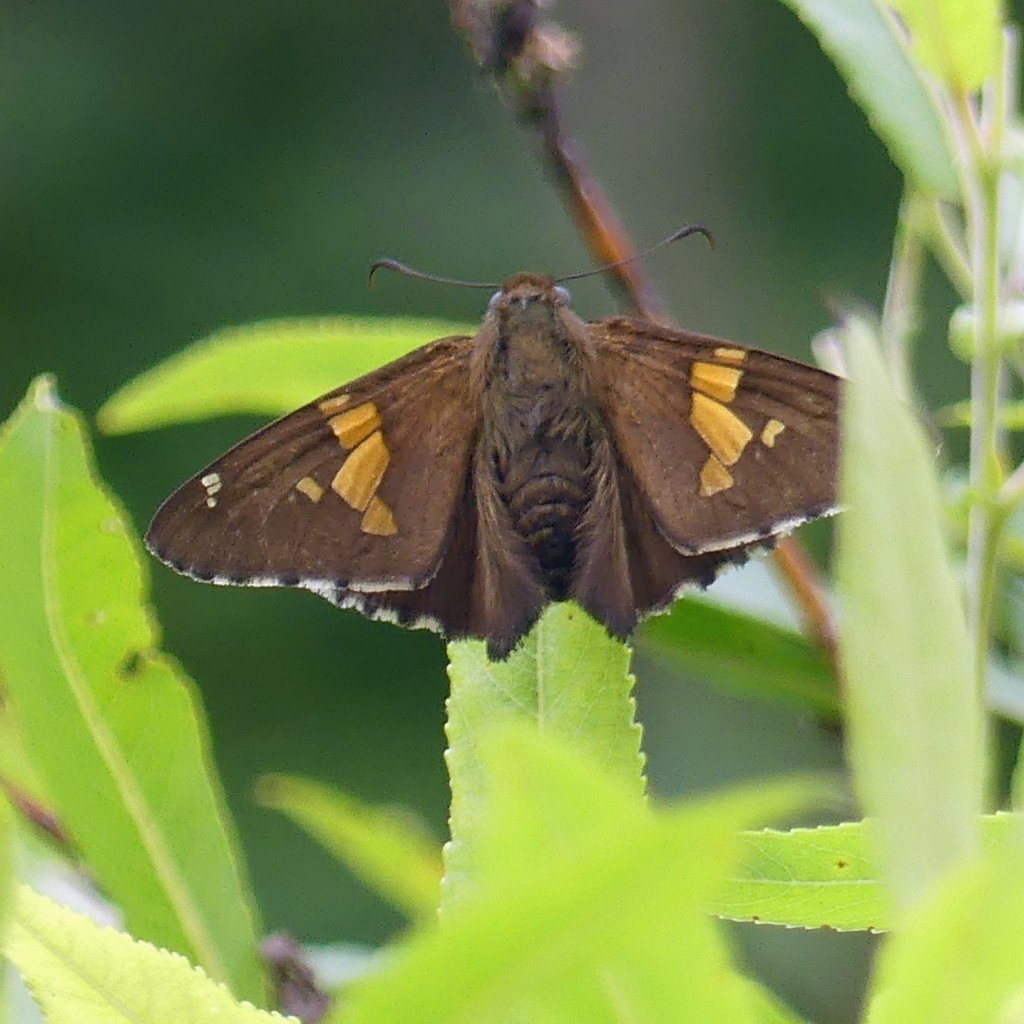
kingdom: Animalia
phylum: Arthropoda
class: Insecta
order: Lepidoptera
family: Hesperiidae
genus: Epargyreus
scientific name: Epargyreus clarus
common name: Silver-spotted Skipper
